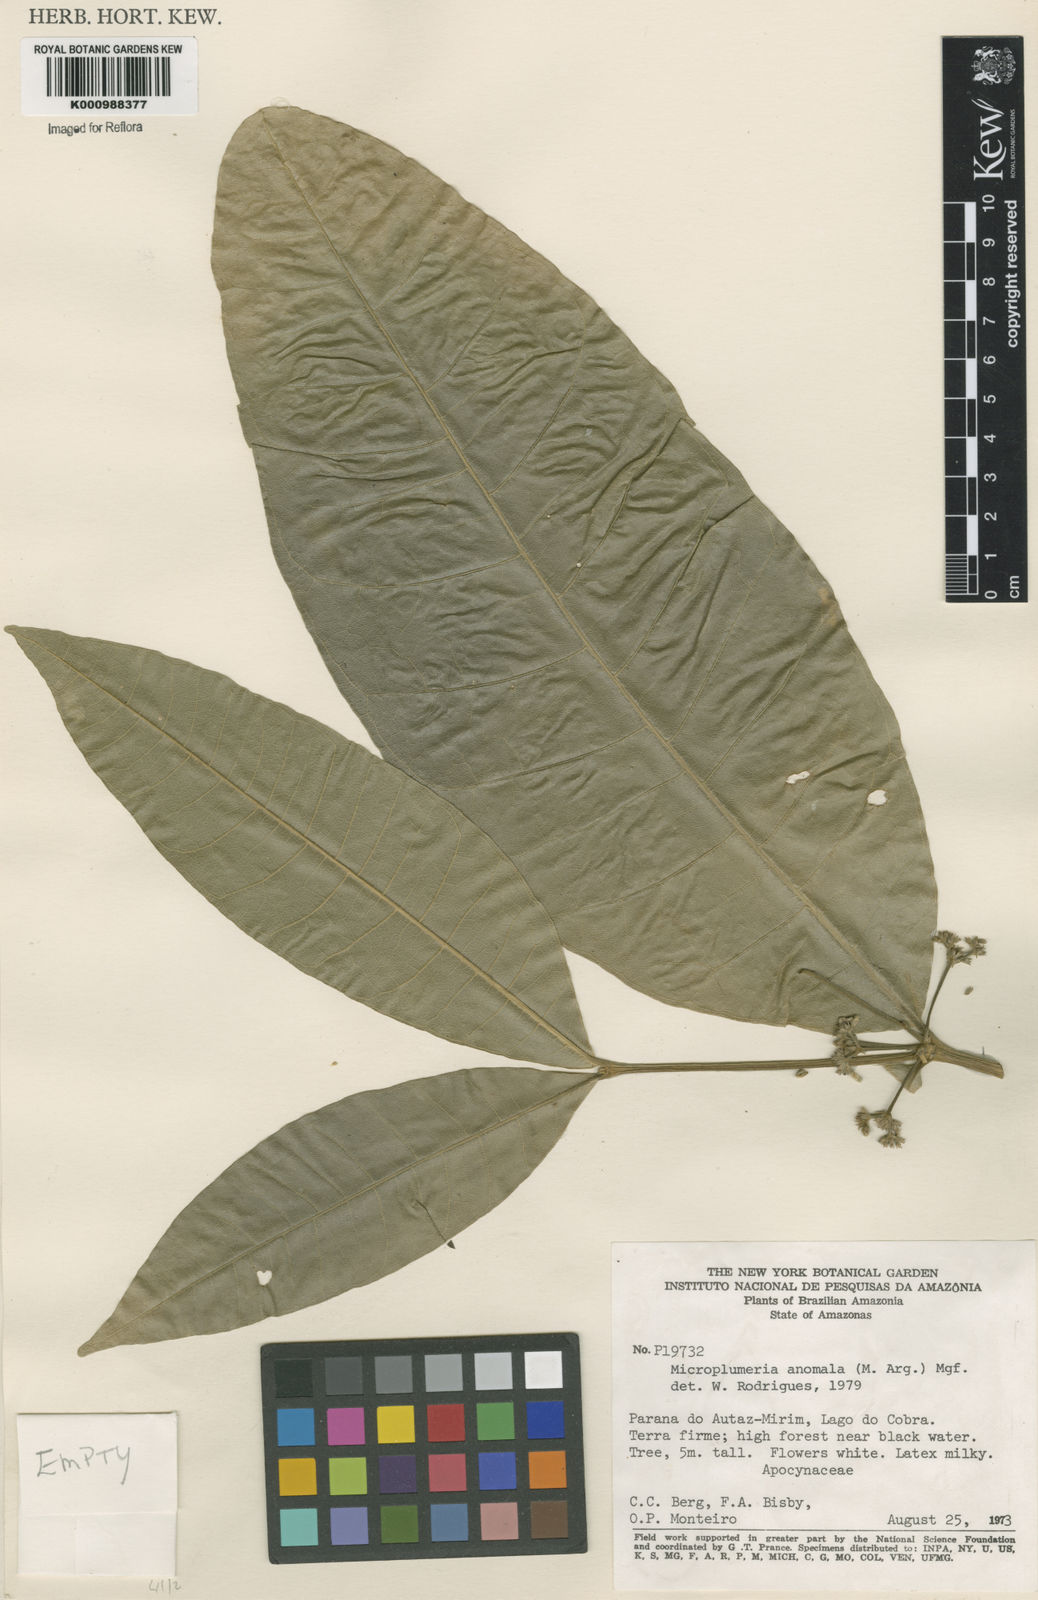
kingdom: Plantae
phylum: Tracheophyta
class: Magnoliopsida
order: Gentianales
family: Apocynaceae
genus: Microplumeria
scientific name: Microplumeria
